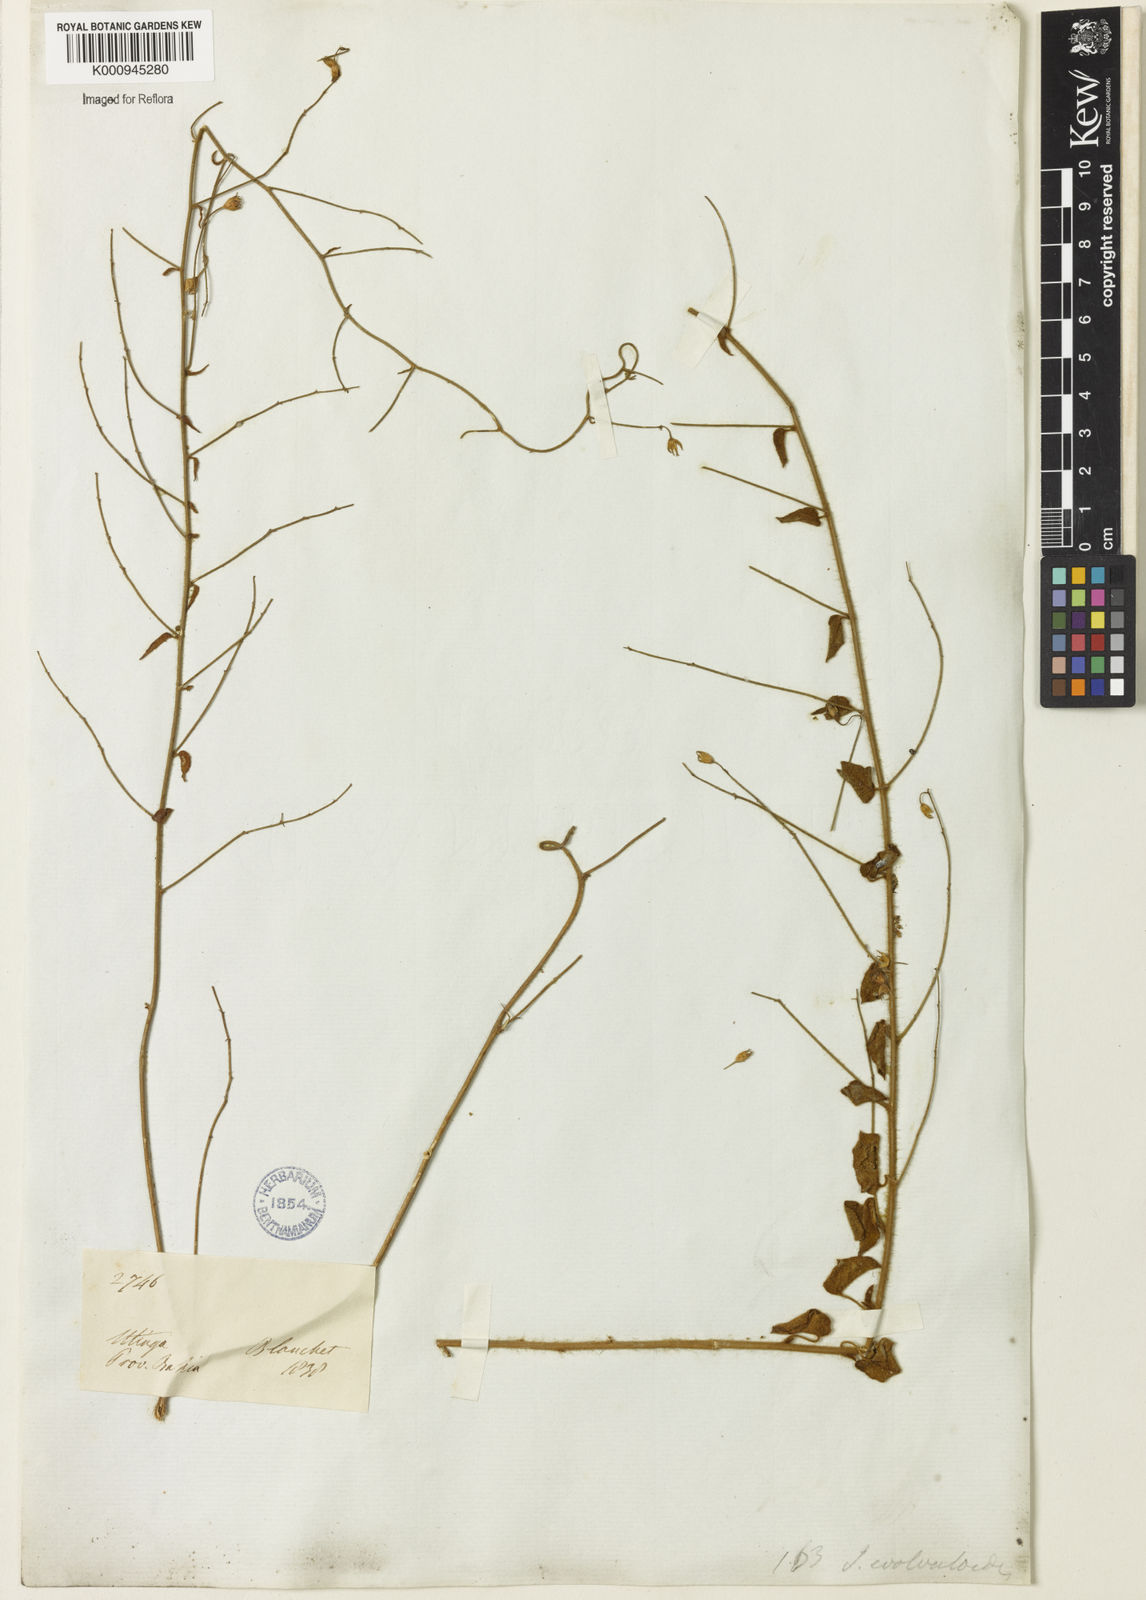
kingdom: Plantae
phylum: Tracheophyta
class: Magnoliopsida
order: Solanales
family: Convolvulaceae
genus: Jacquemontia
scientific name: Jacquemontia evolvuloides
